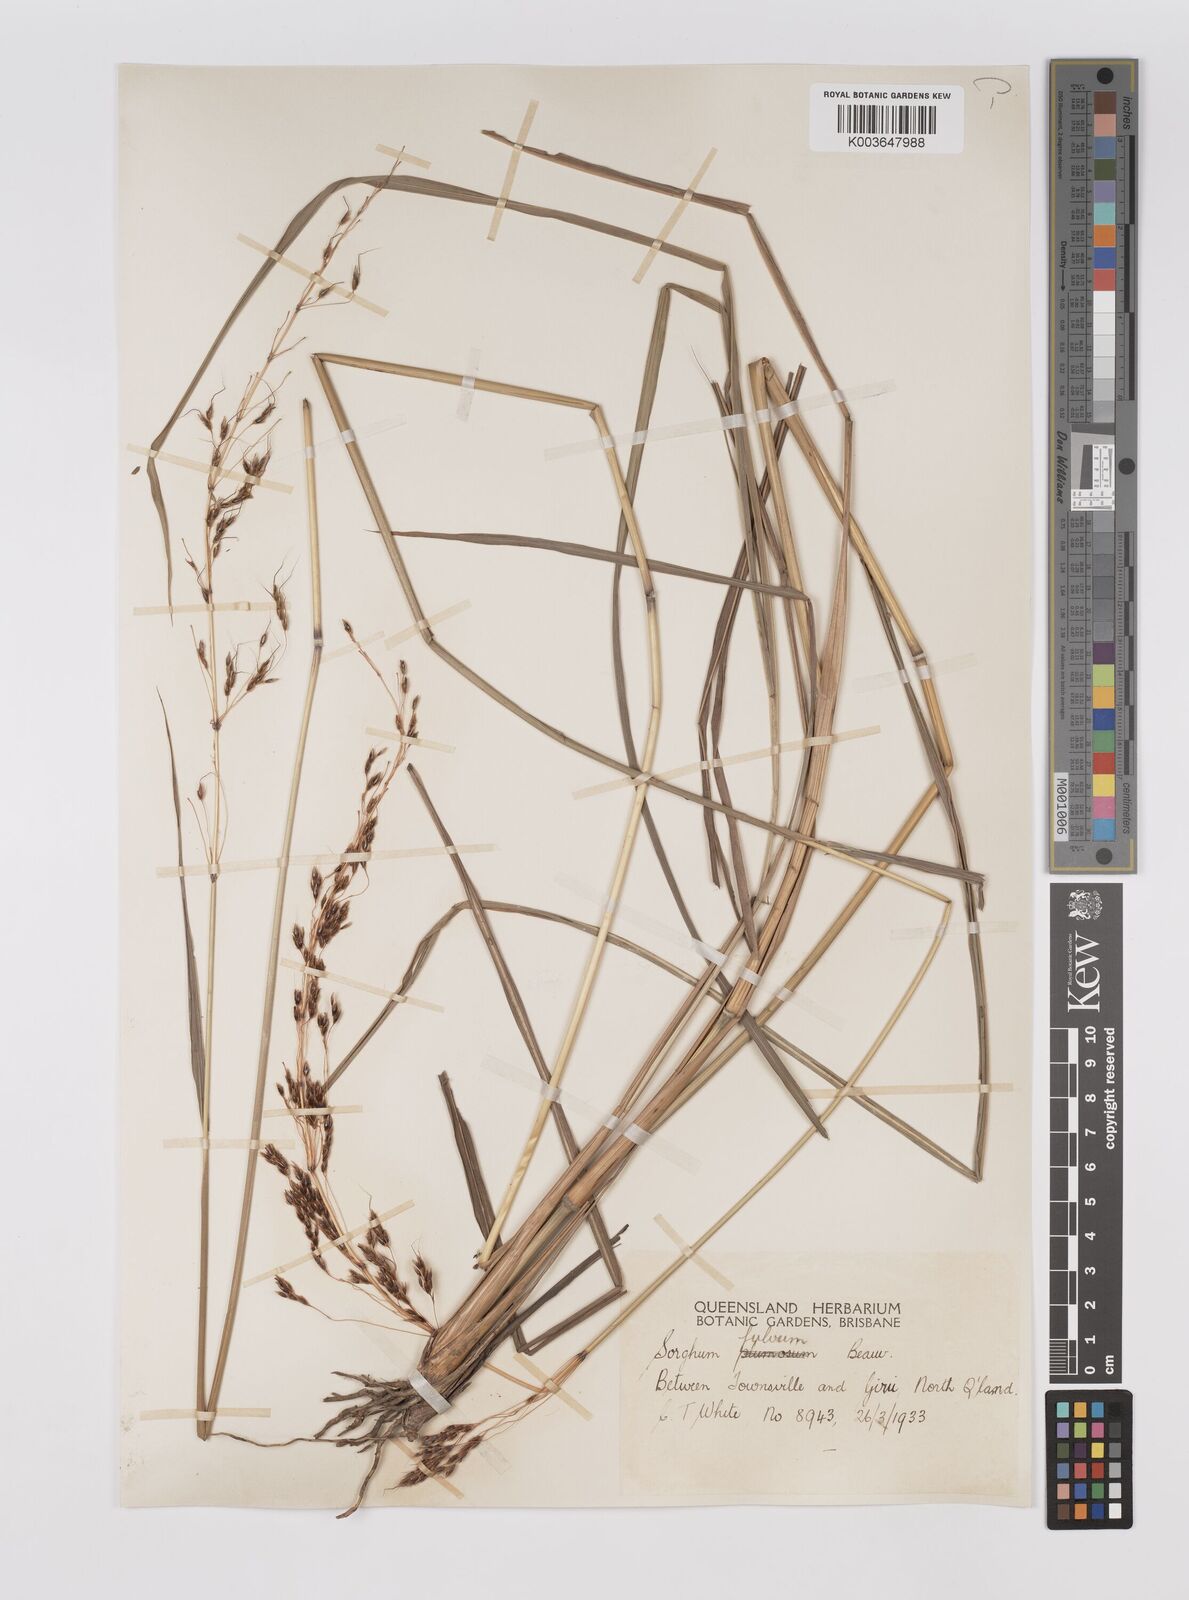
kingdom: Plantae
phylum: Tracheophyta
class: Liliopsida
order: Poales
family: Poaceae
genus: Sorghum
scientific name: Sorghum nitidum
